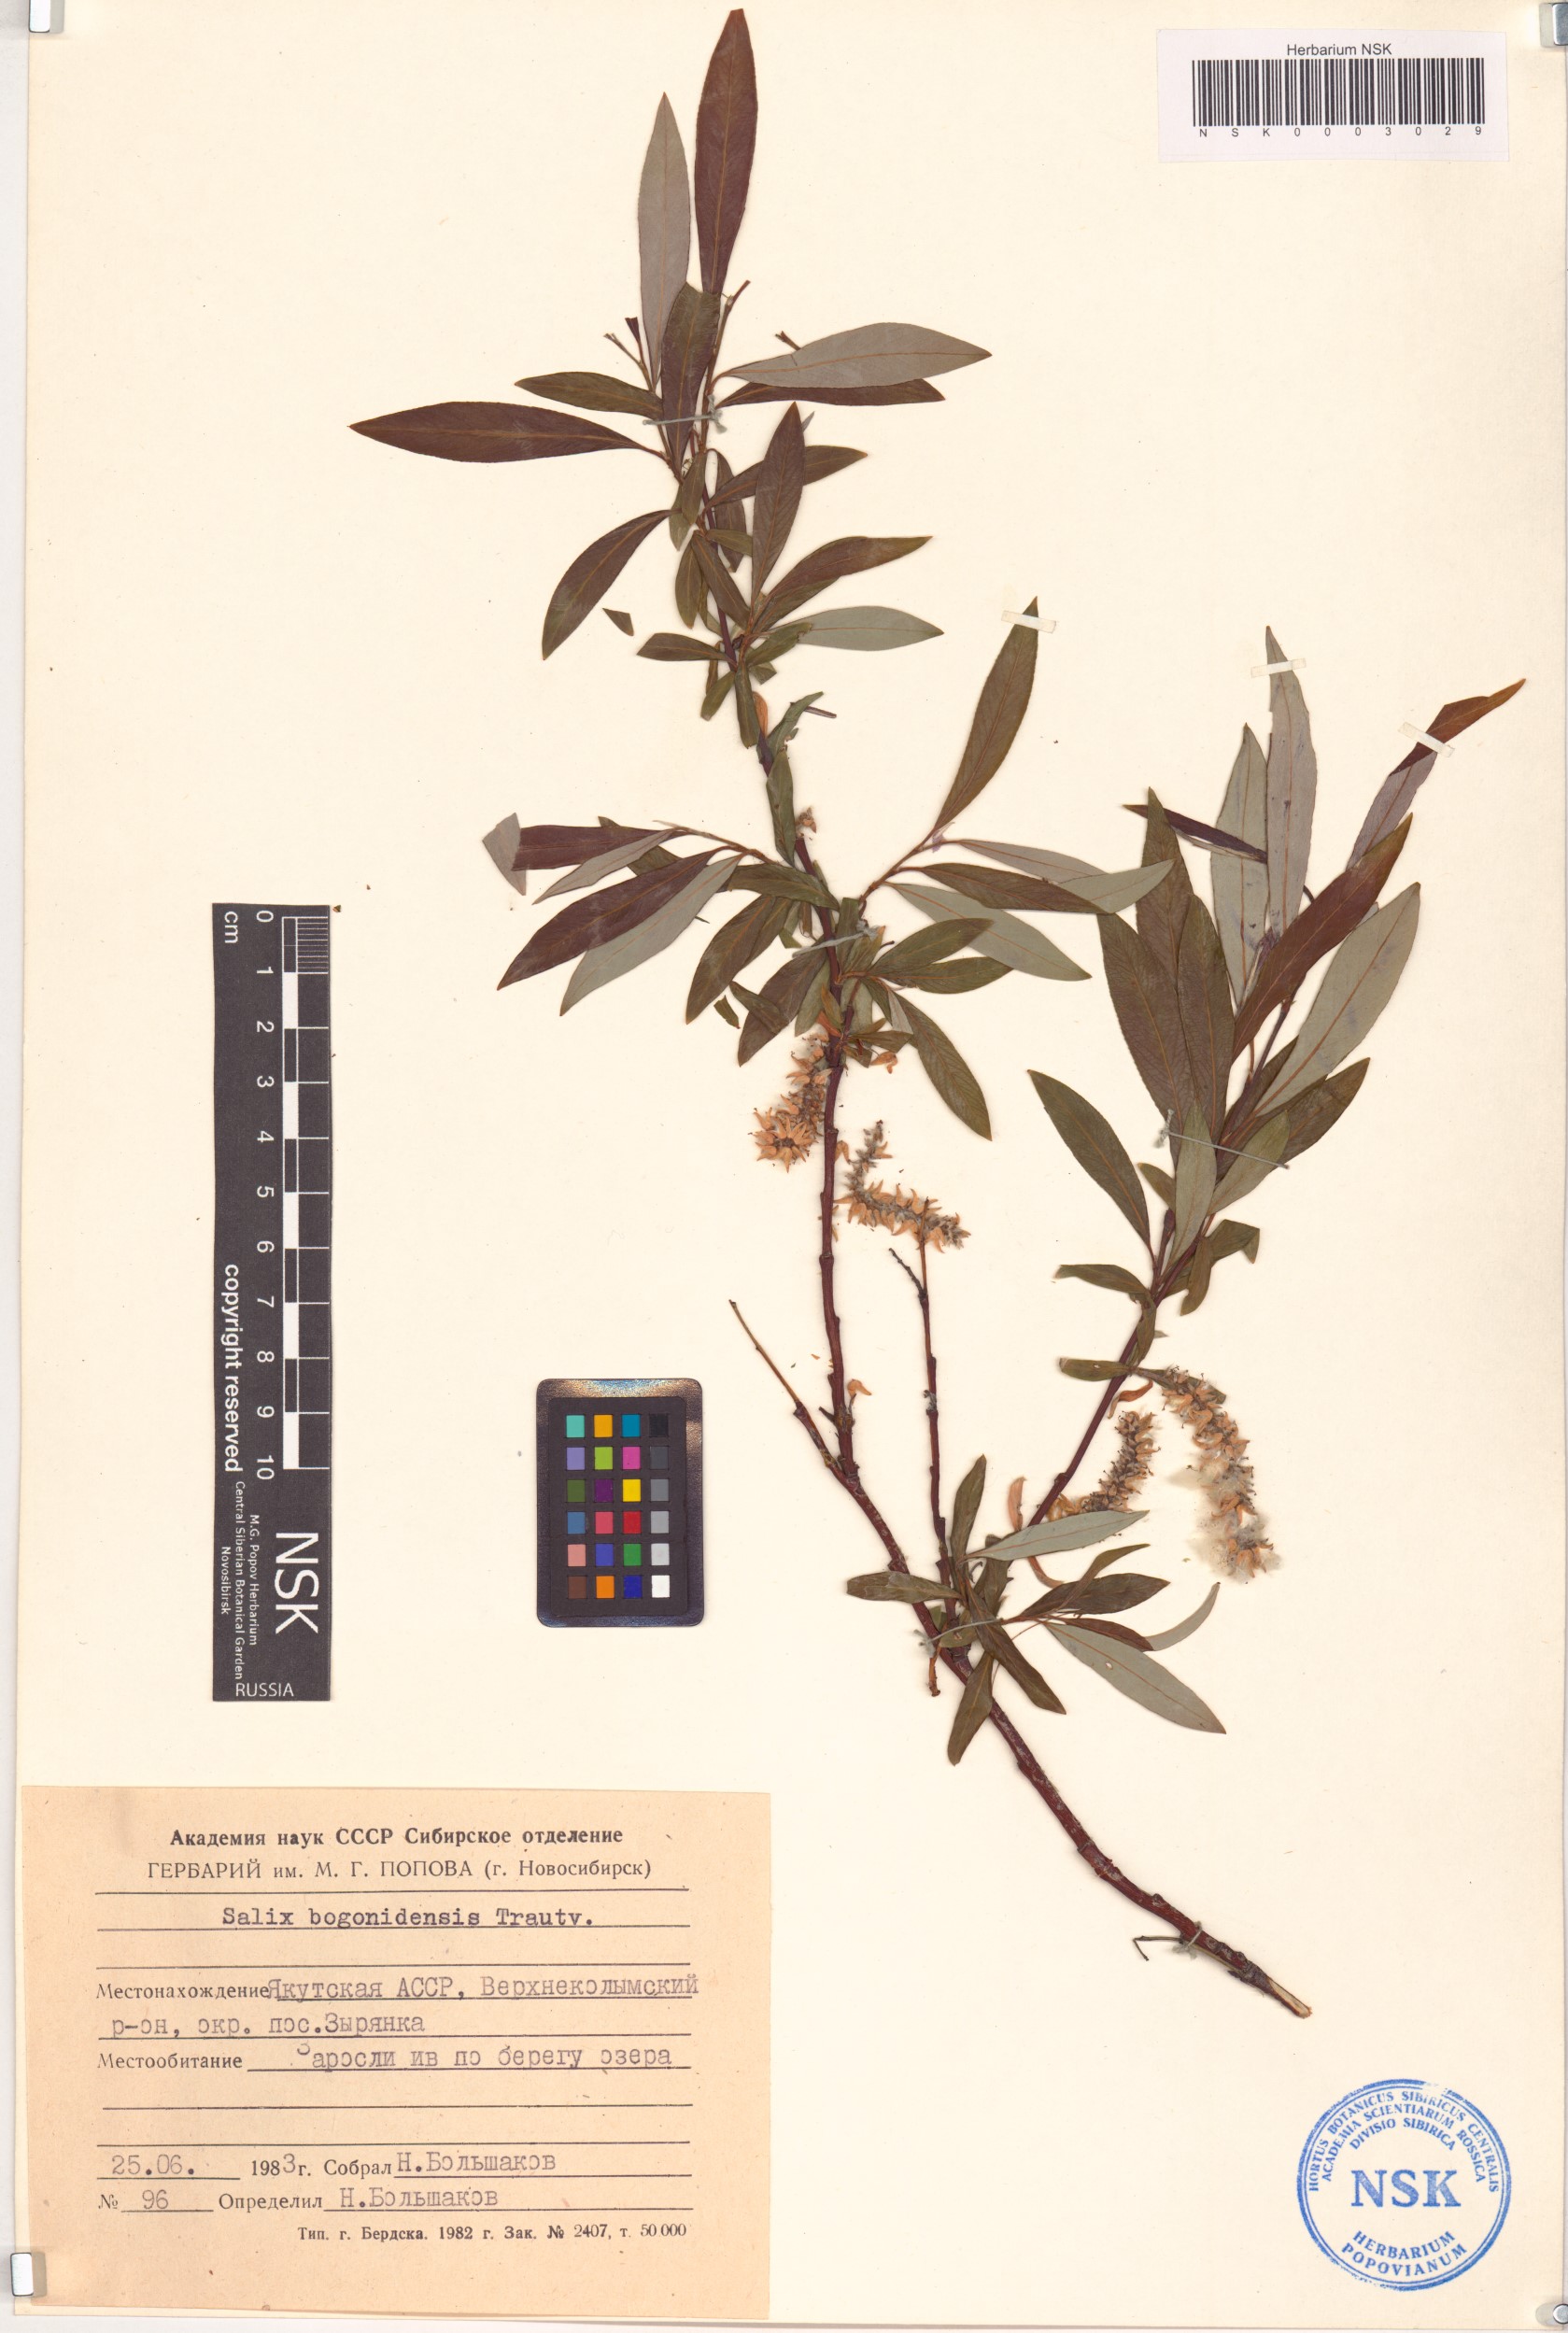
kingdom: Plantae
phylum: Tracheophyta
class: Magnoliopsida
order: Malpighiales
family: Salicaceae
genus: Salix
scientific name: Salix boganidensis
